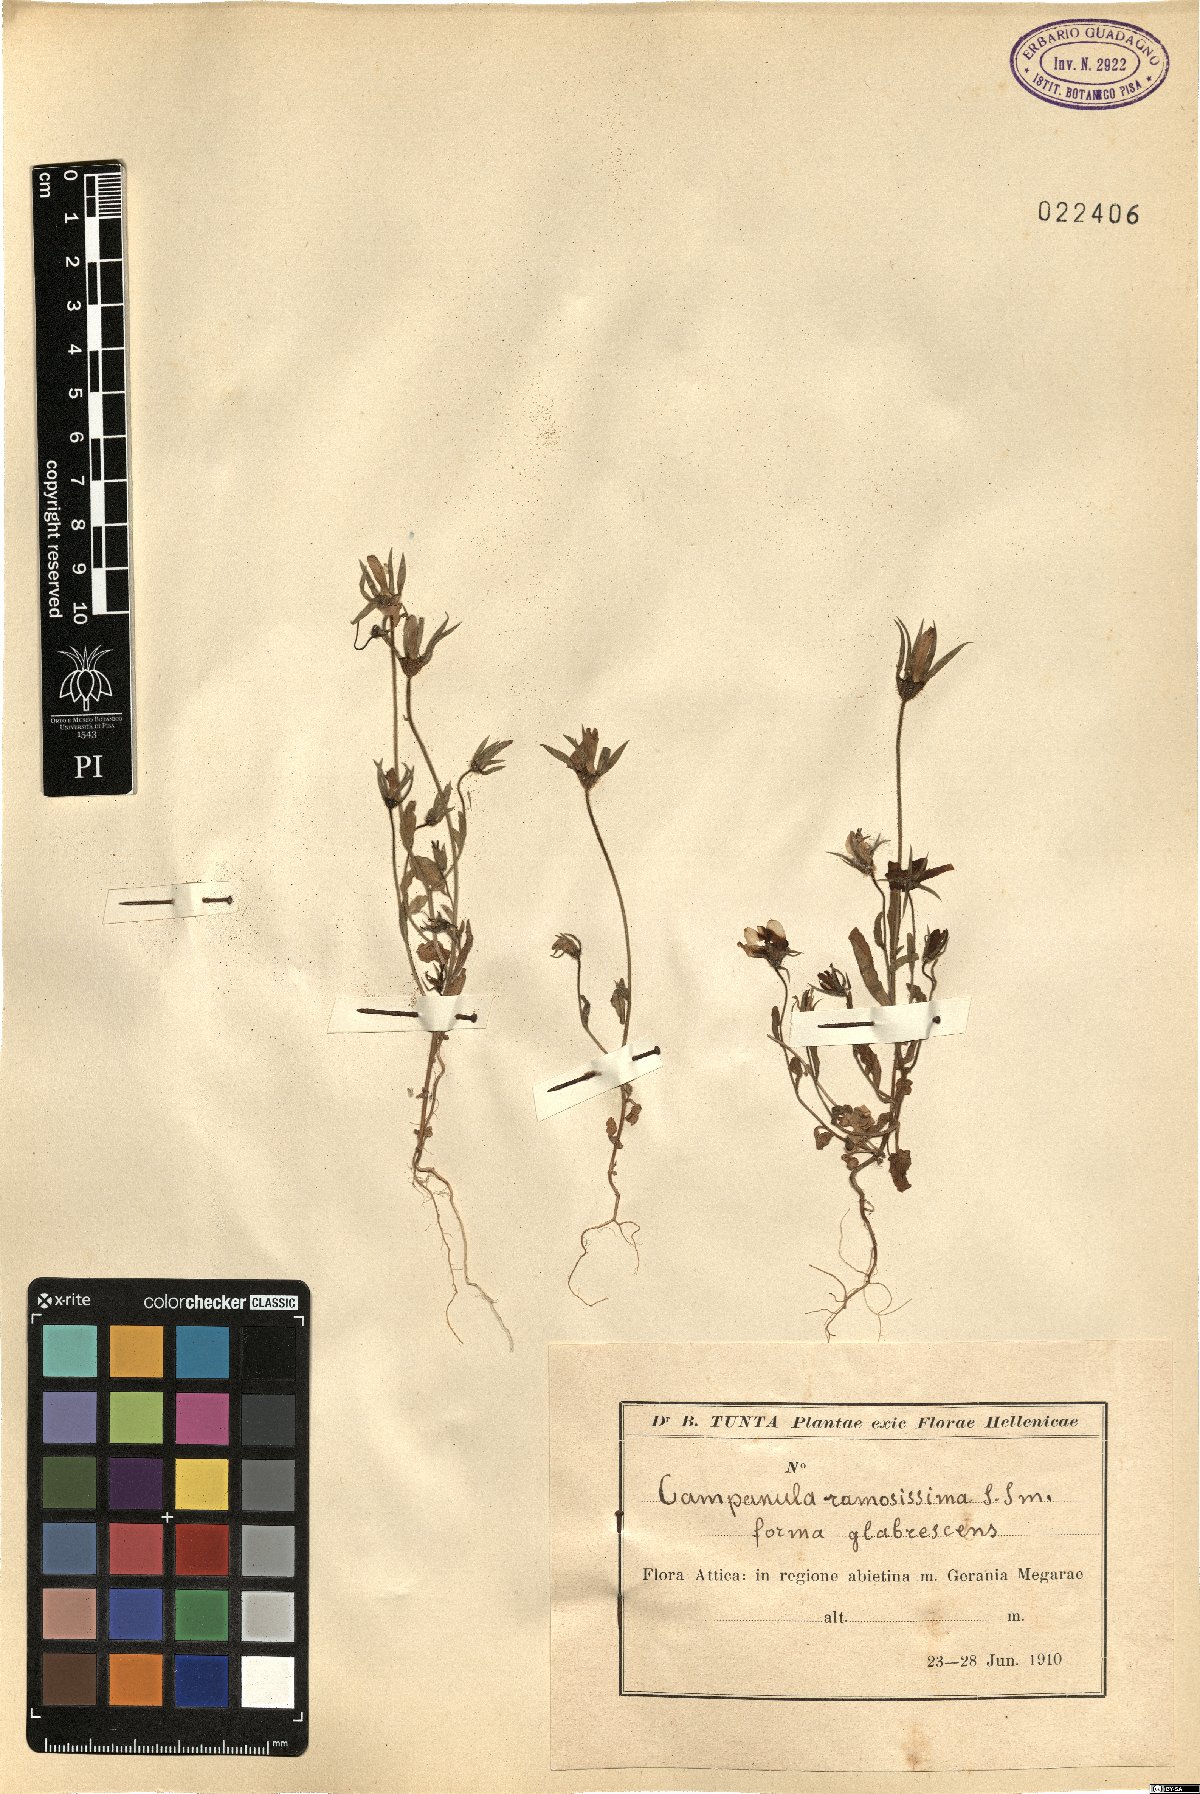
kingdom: Plantae
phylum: Tracheophyta
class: Magnoliopsida
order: Asterales
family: Campanulaceae
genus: Campanula
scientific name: Campanula ramosissima
